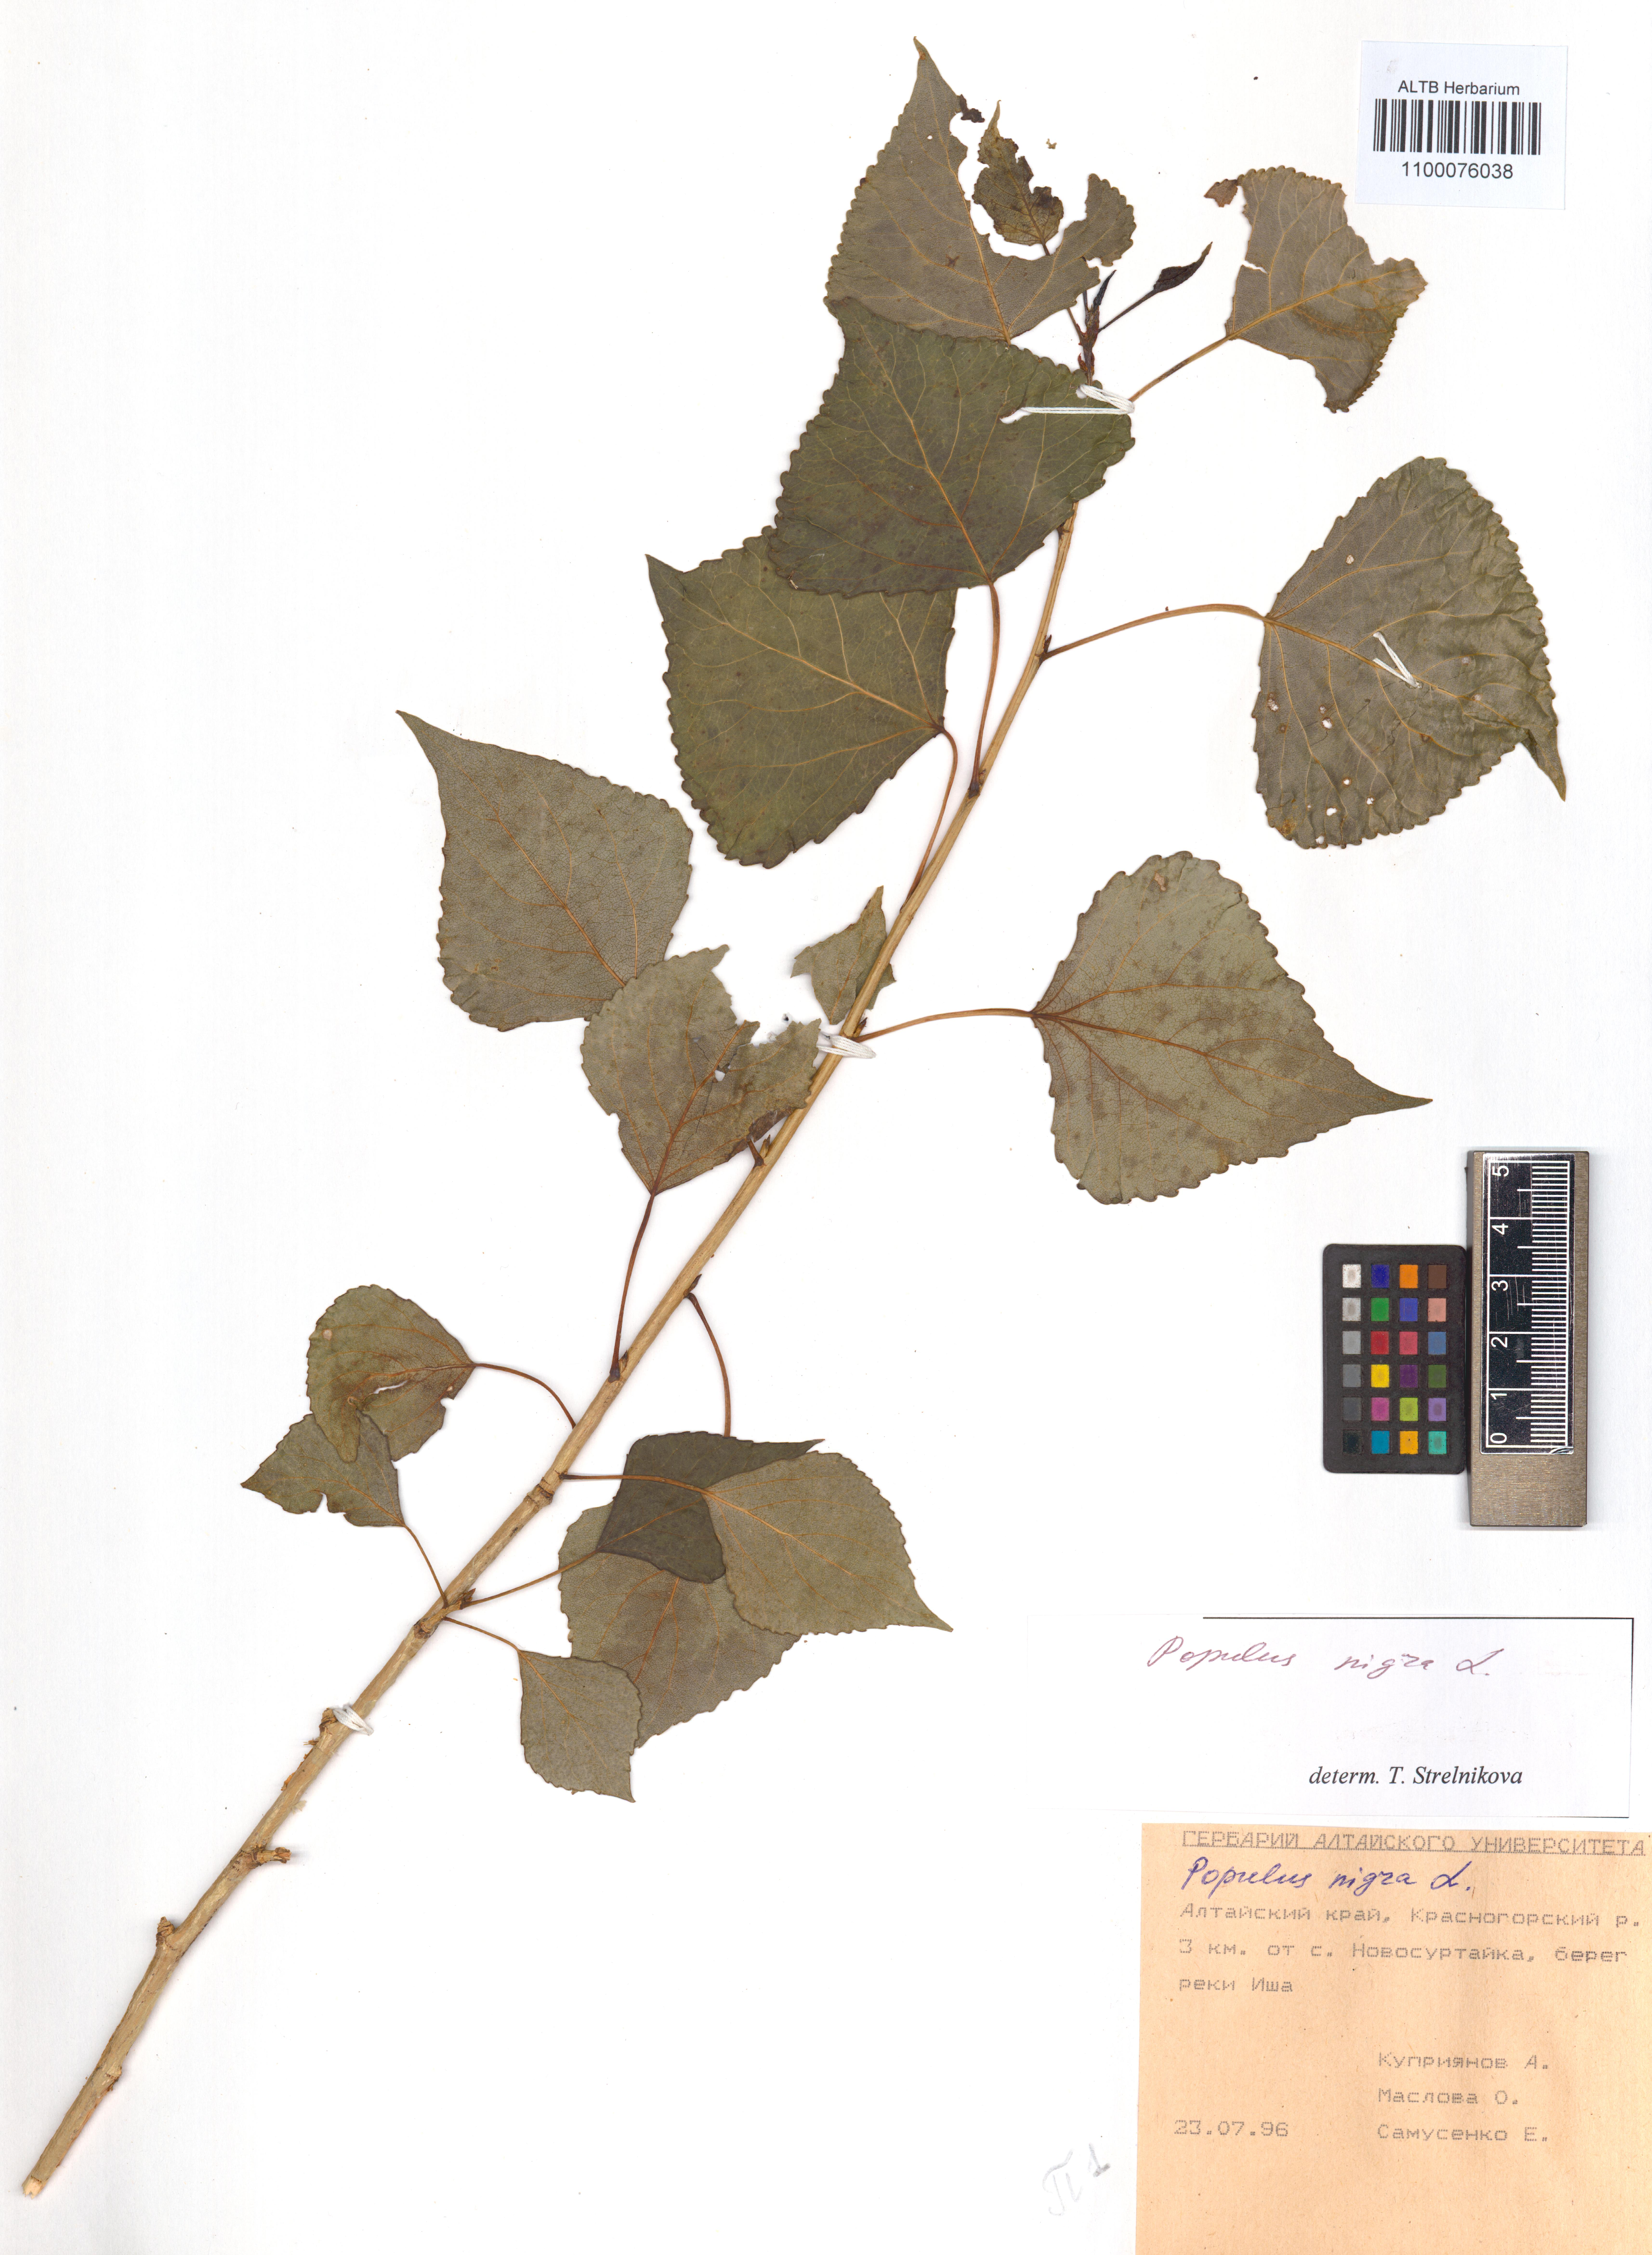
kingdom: Plantae
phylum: Tracheophyta
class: Magnoliopsida
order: Malpighiales
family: Salicaceae
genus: Populus
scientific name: Populus nigra
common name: Black poplar
